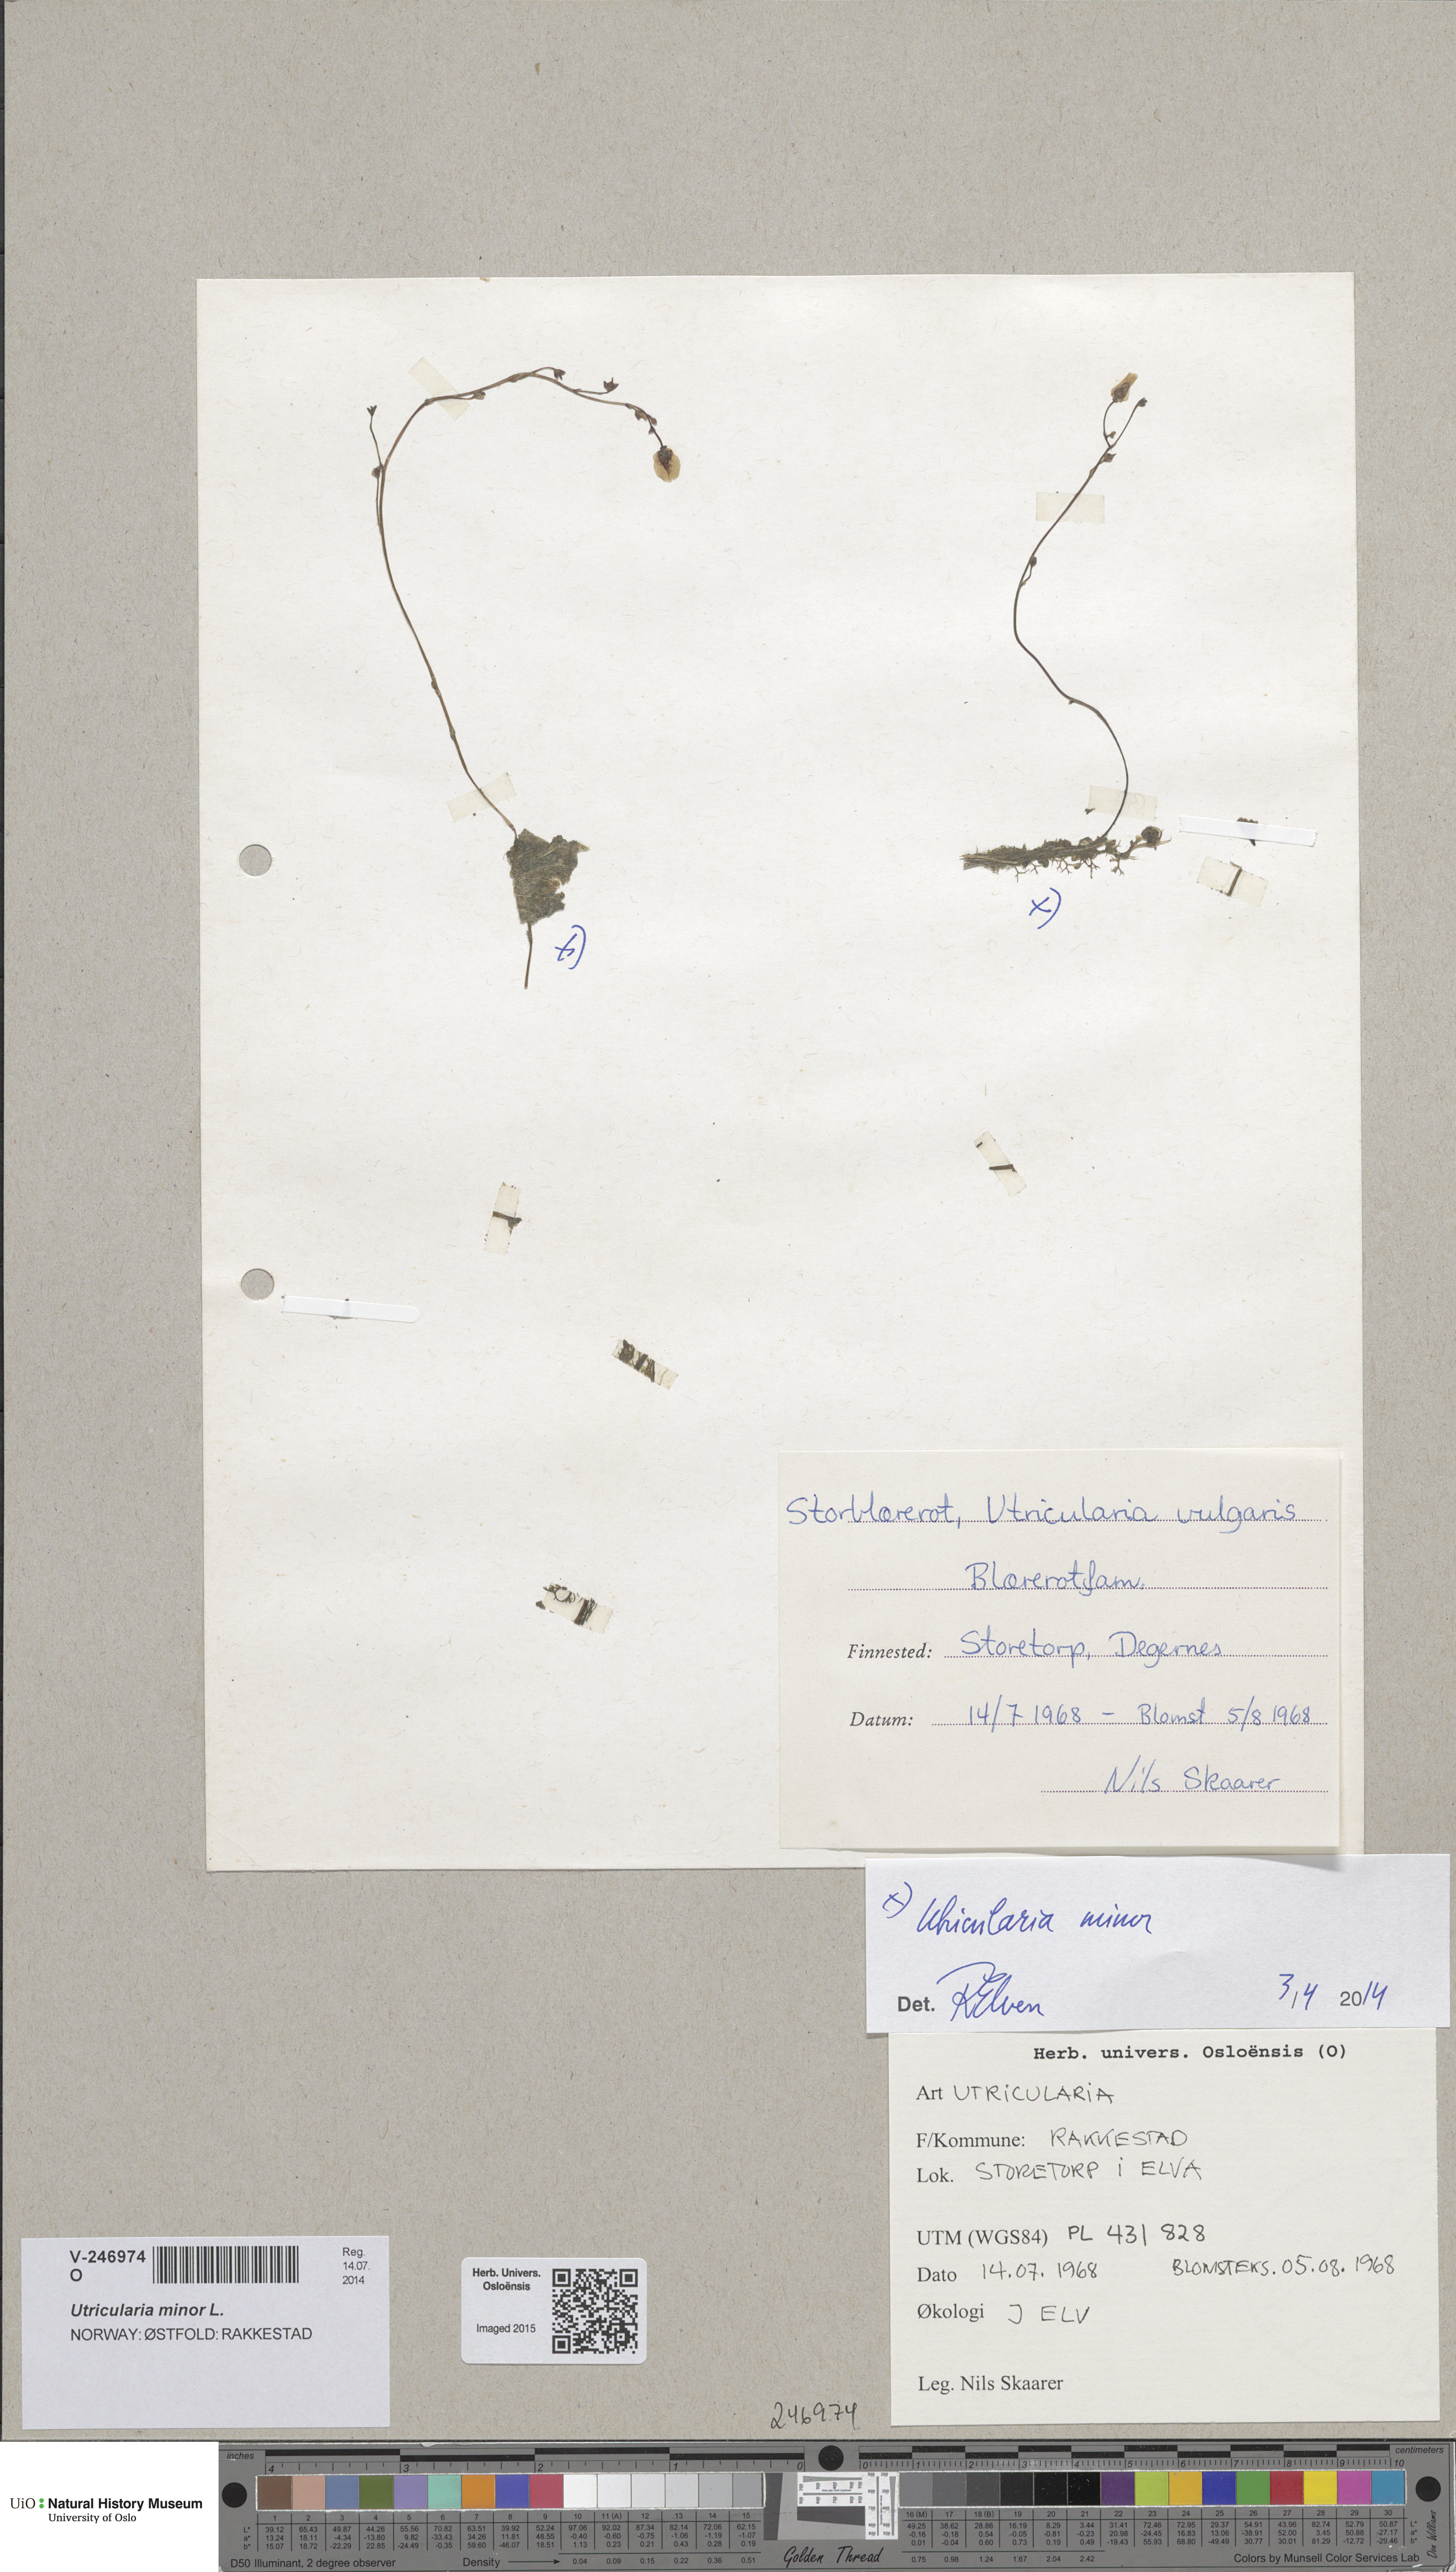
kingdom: Plantae
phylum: Tracheophyta
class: Magnoliopsida
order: Lamiales
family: Lentibulariaceae
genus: Utricularia
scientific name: Utricularia minor
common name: Lesser bladderwort
